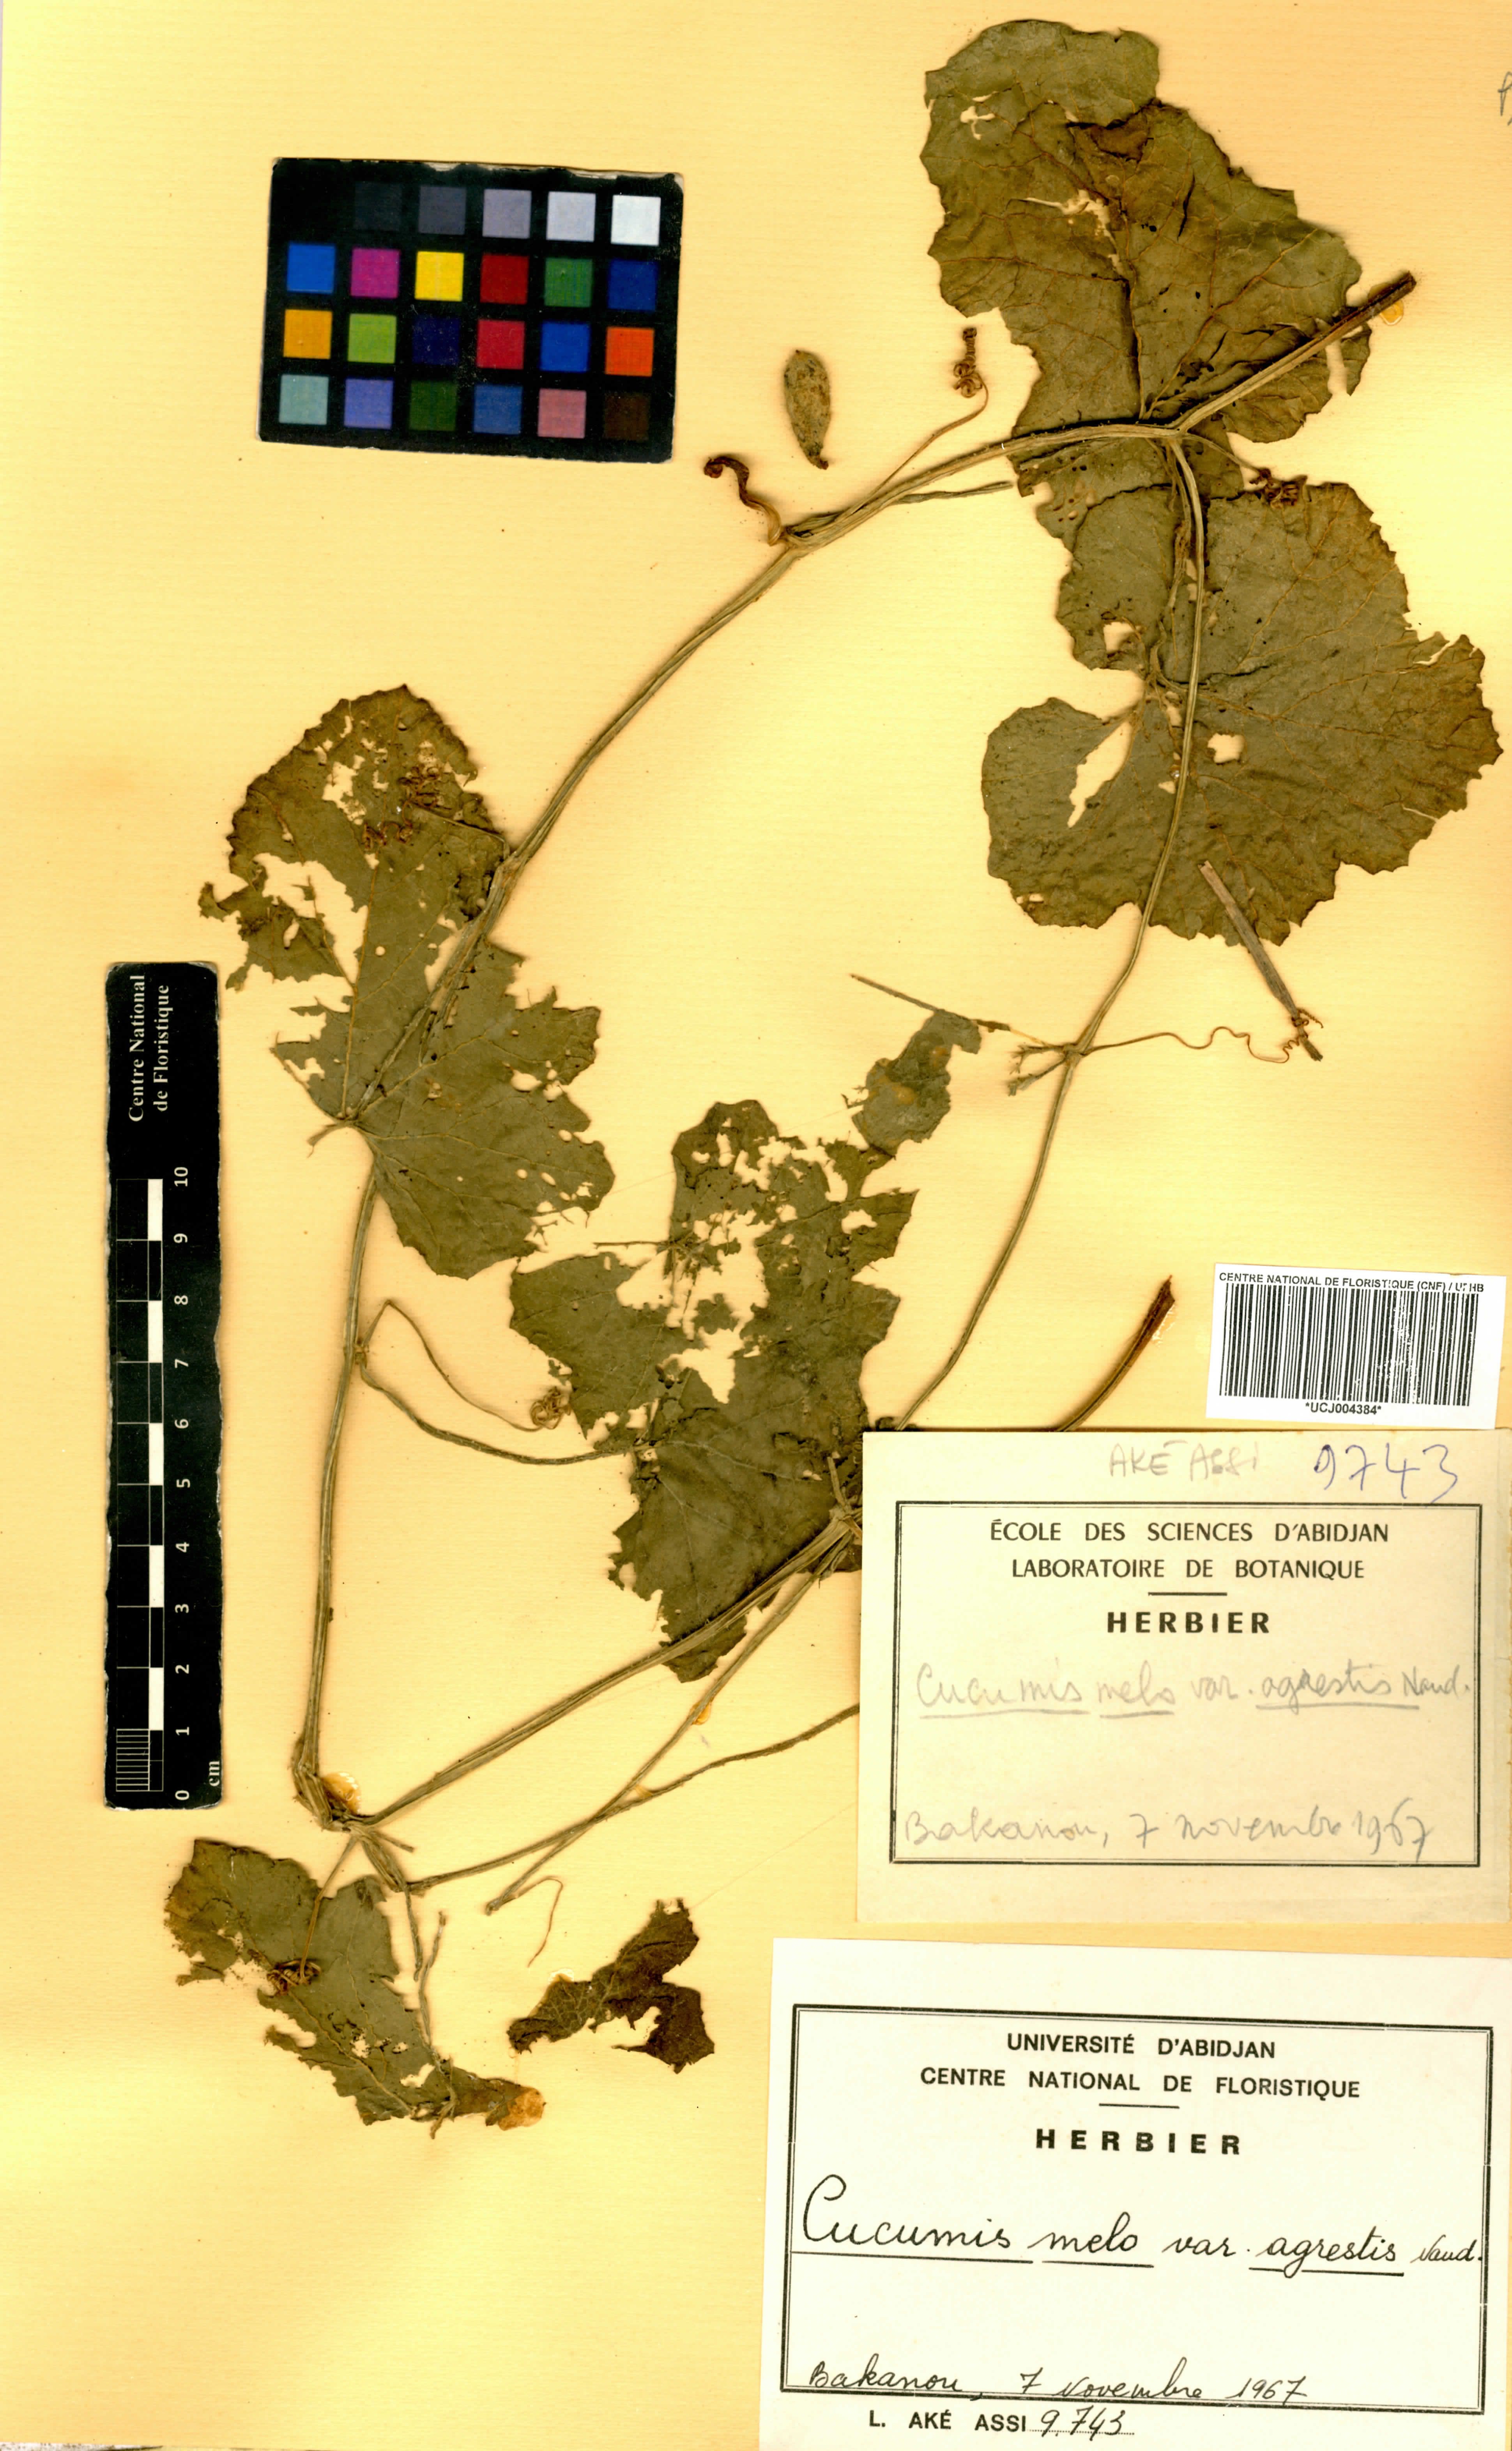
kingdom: Plantae
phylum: Tracheophyta
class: Magnoliopsida
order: Cucurbitales
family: Cucurbitaceae
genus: Cucumis
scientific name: Cucumis melo
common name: Melon
